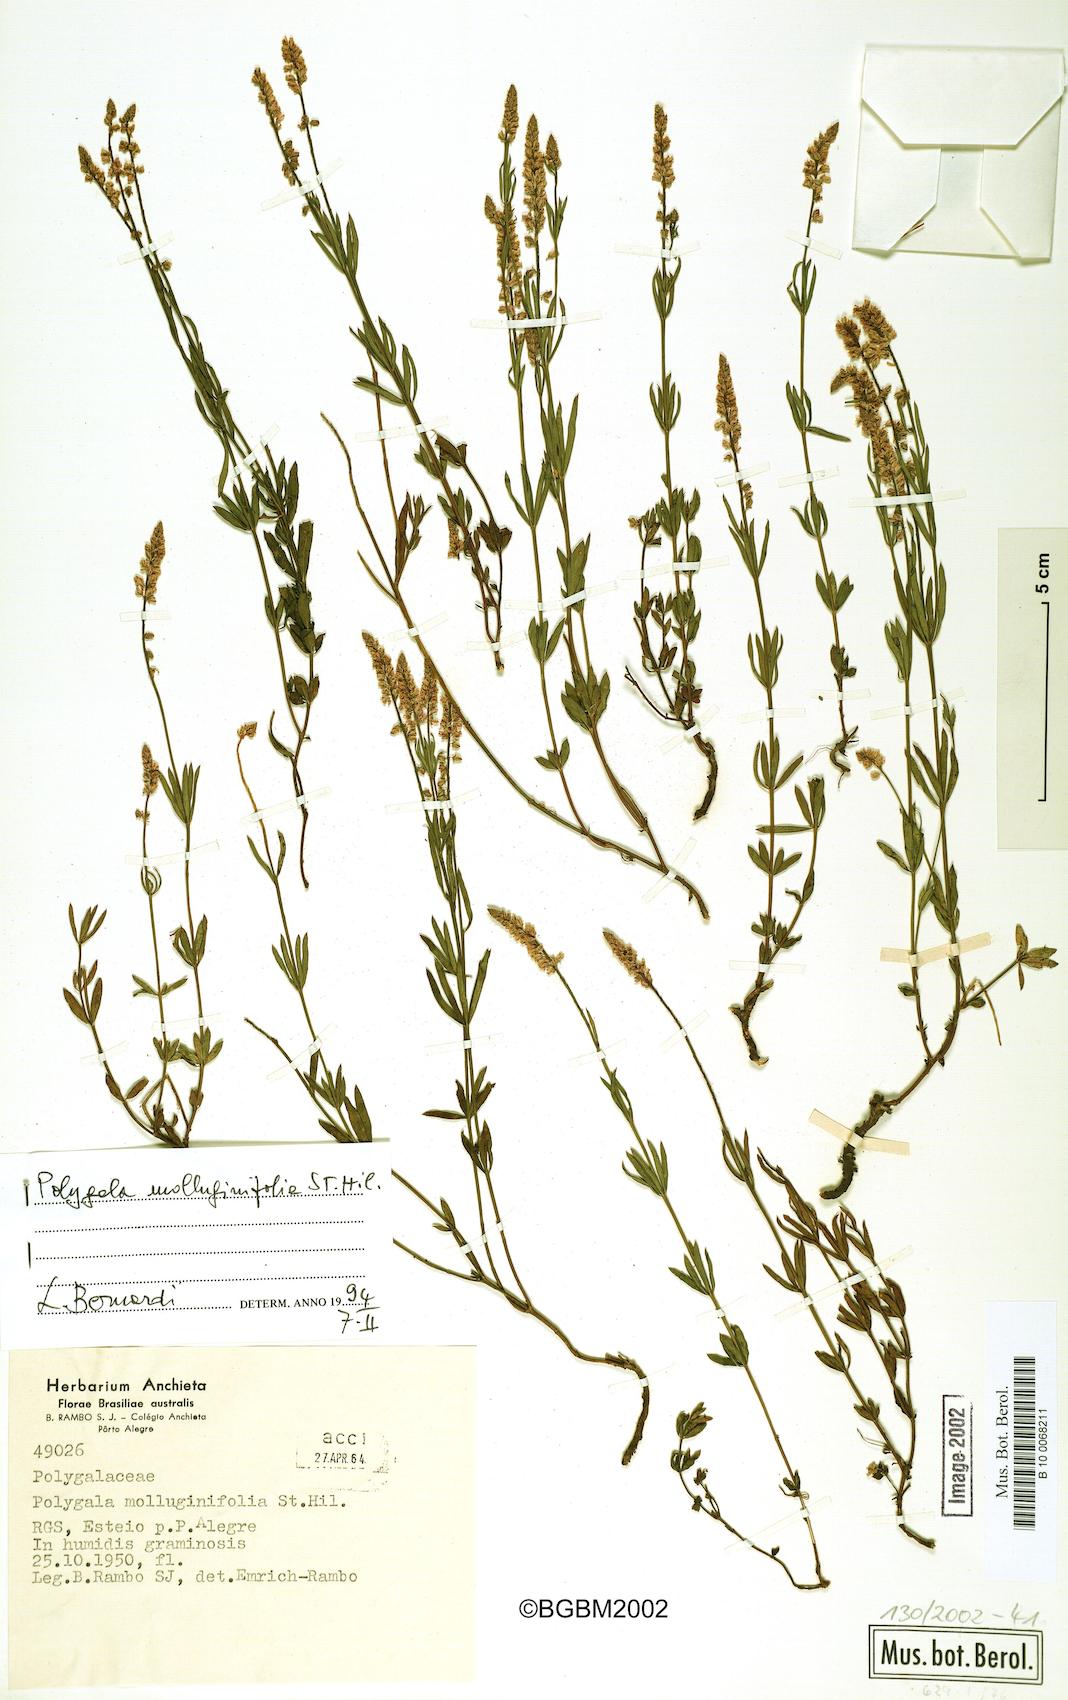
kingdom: Plantae
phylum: Tracheophyta
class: Magnoliopsida
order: Fabales
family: Polygalaceae
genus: Polygala
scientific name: Polygala molluginifolia
